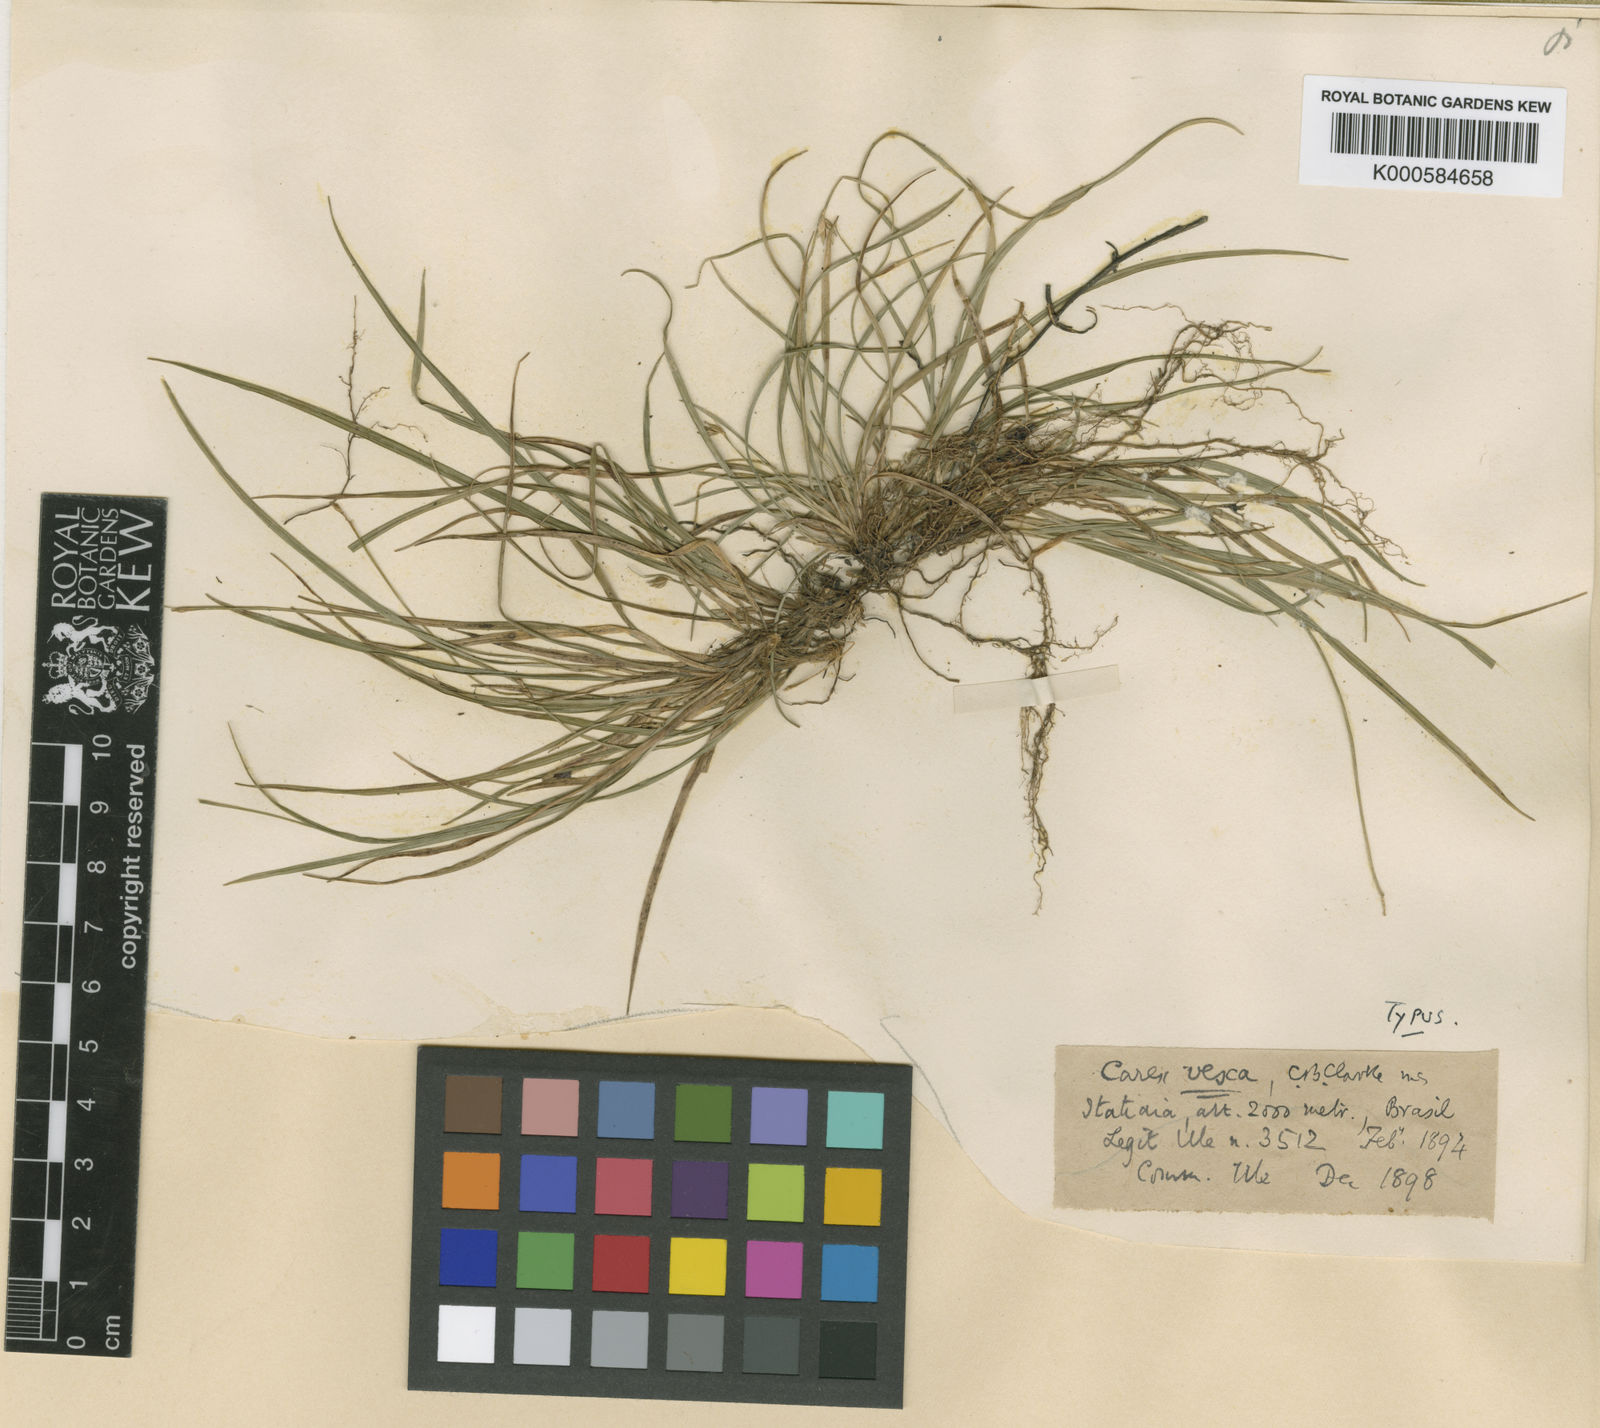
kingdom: Plantae
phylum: Tracheophyta
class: Liliopsida
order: Poales
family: Cyperaceae
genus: Carex
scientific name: Carex
